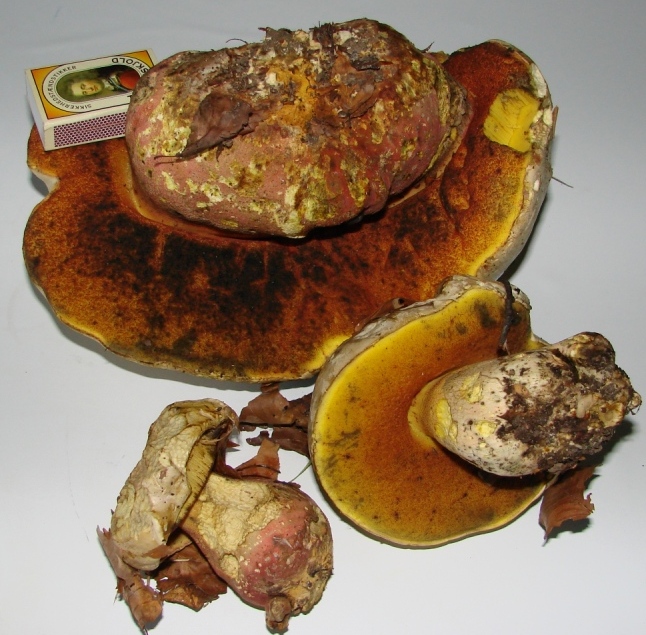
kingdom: Fungi
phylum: Basidiomycota
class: Agaricomycetes
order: Boletales
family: Boletaceae
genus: Rubroboletus
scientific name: Rubroboletus satanas
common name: Satans rørhat
